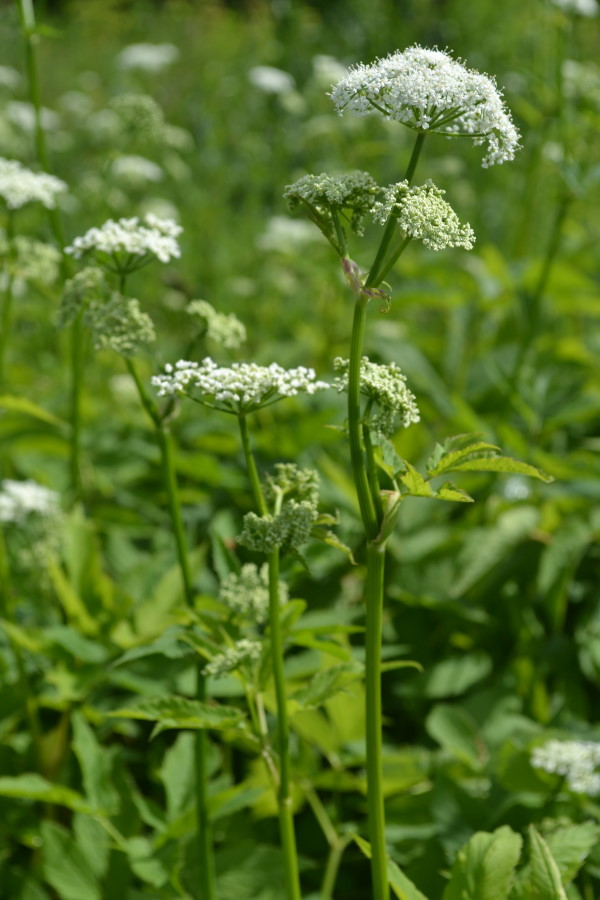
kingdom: Plantae
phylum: Tracheophyta
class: Magnoliopsida
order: Apiales
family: Apiaceae
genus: Aegopodium
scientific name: Aegopodium podagraria
